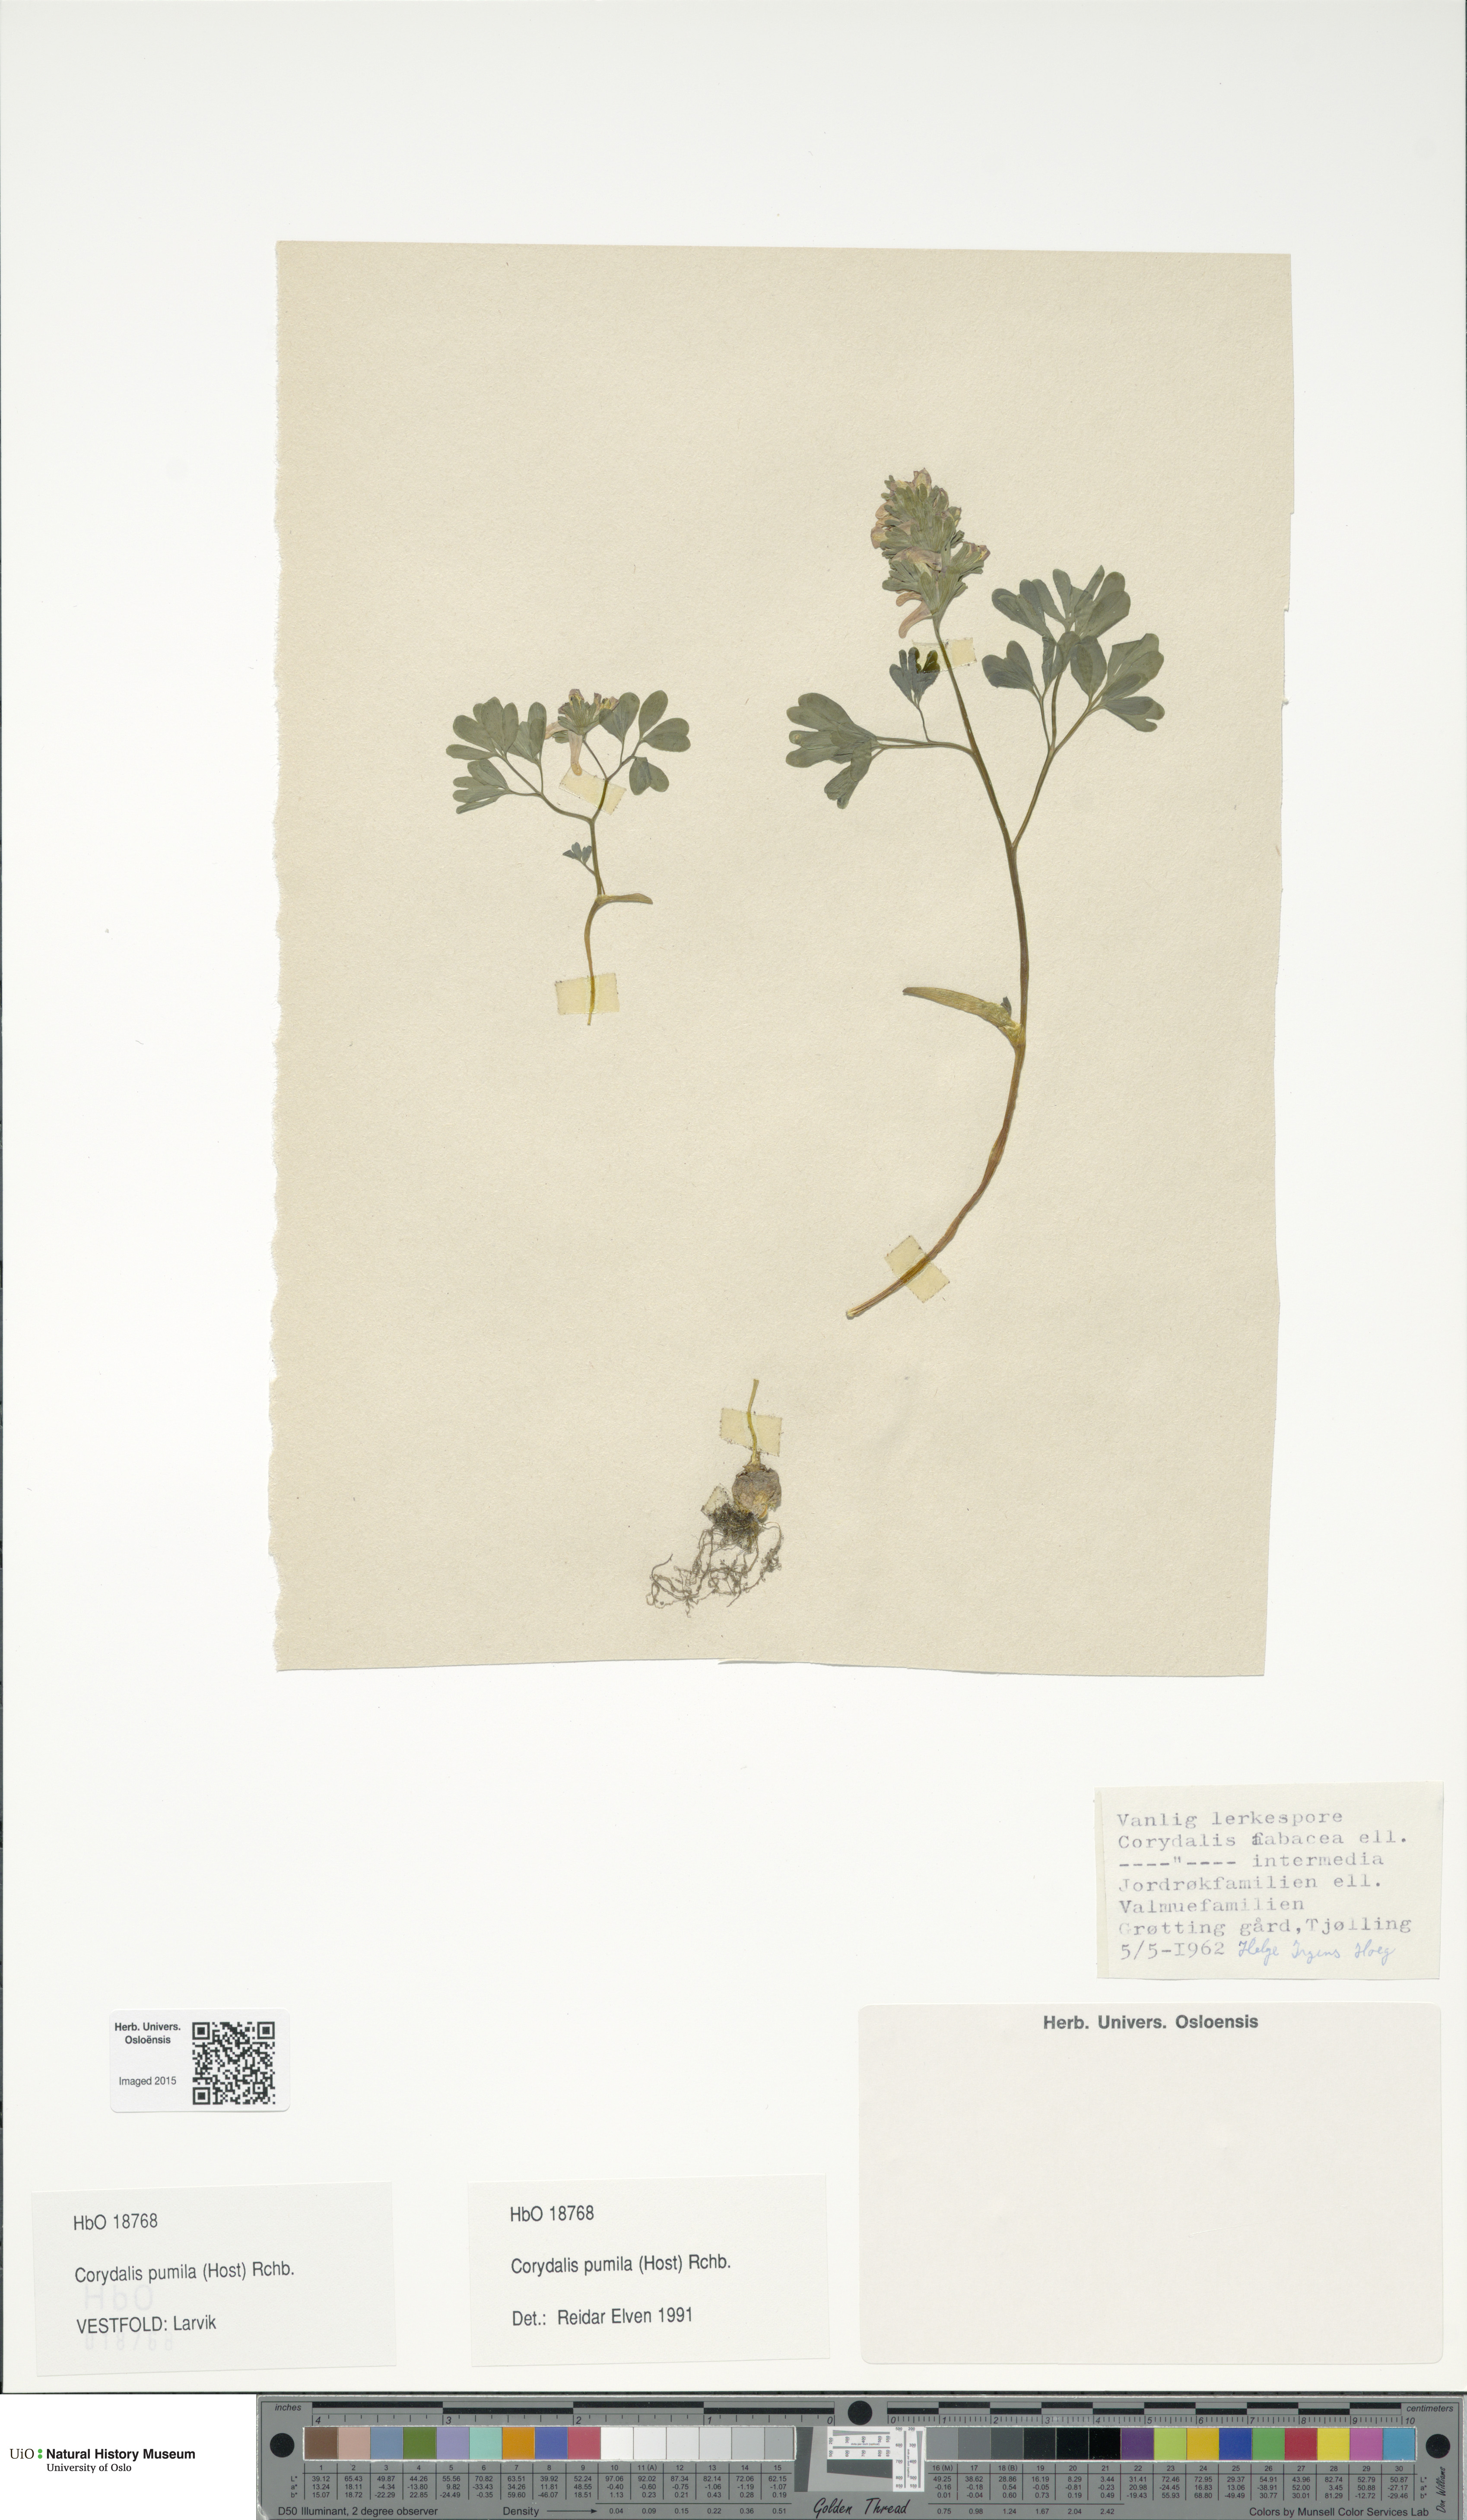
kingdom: Plantae
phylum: Tracheophyta
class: Magnoliopsida
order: Ranunculales
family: Papaveraceae
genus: Corydalis
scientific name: Corydalis pumila
